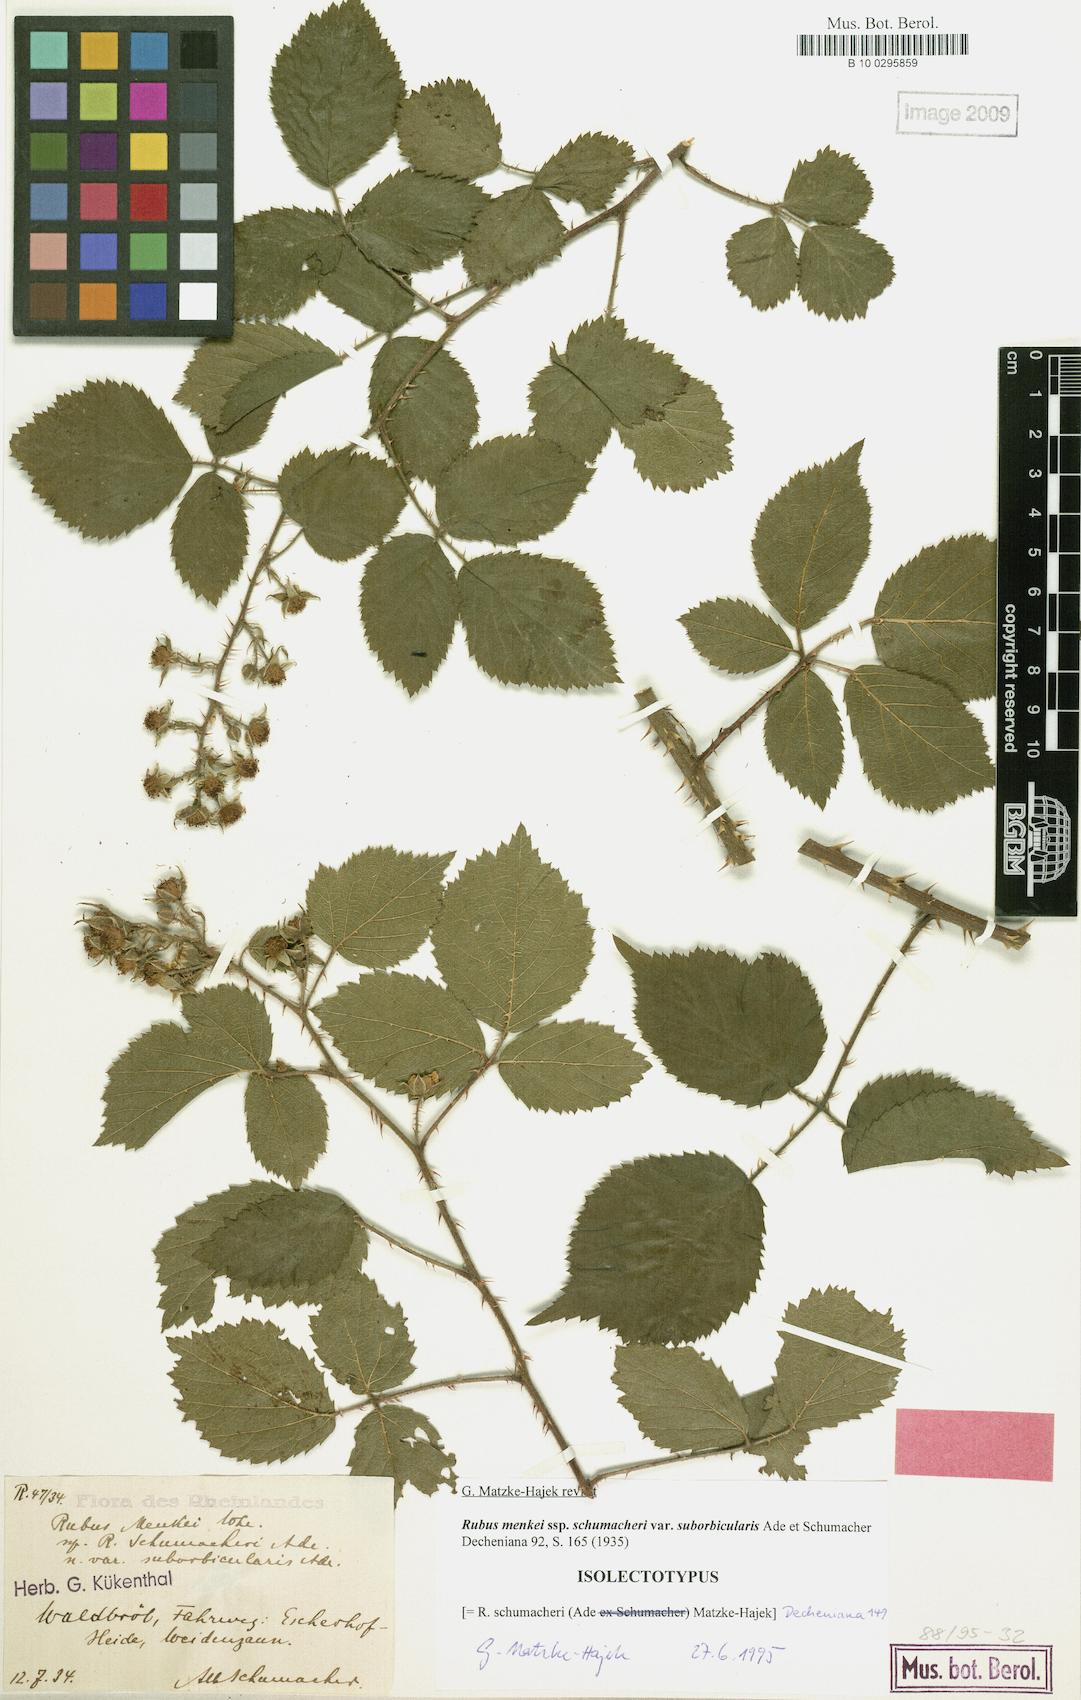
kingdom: Plantae
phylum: Tracheophyta
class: Magnoliopsida
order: Rosales
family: Rosaceae
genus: Rubus
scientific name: Rubus schumacheri
